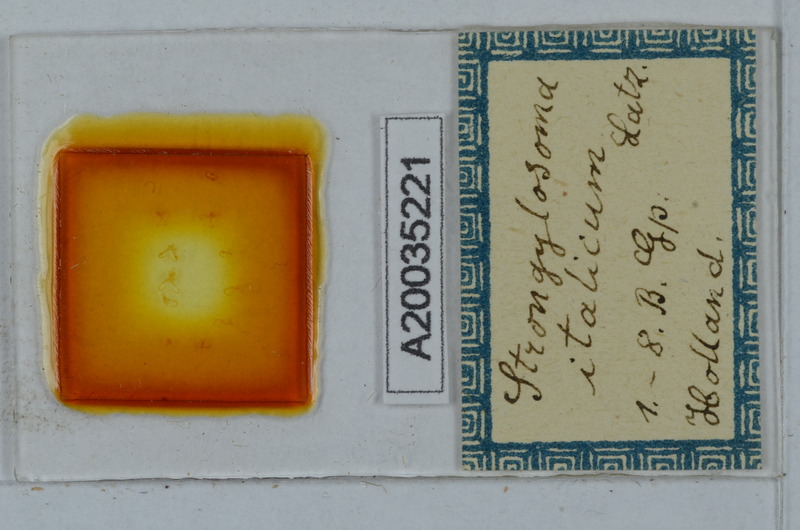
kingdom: Animalia
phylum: Arthropoda
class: Diplopoda
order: Polydesmida
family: Paradoxosomatidae
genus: Strongylosoma
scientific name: Strongylosoma italica
